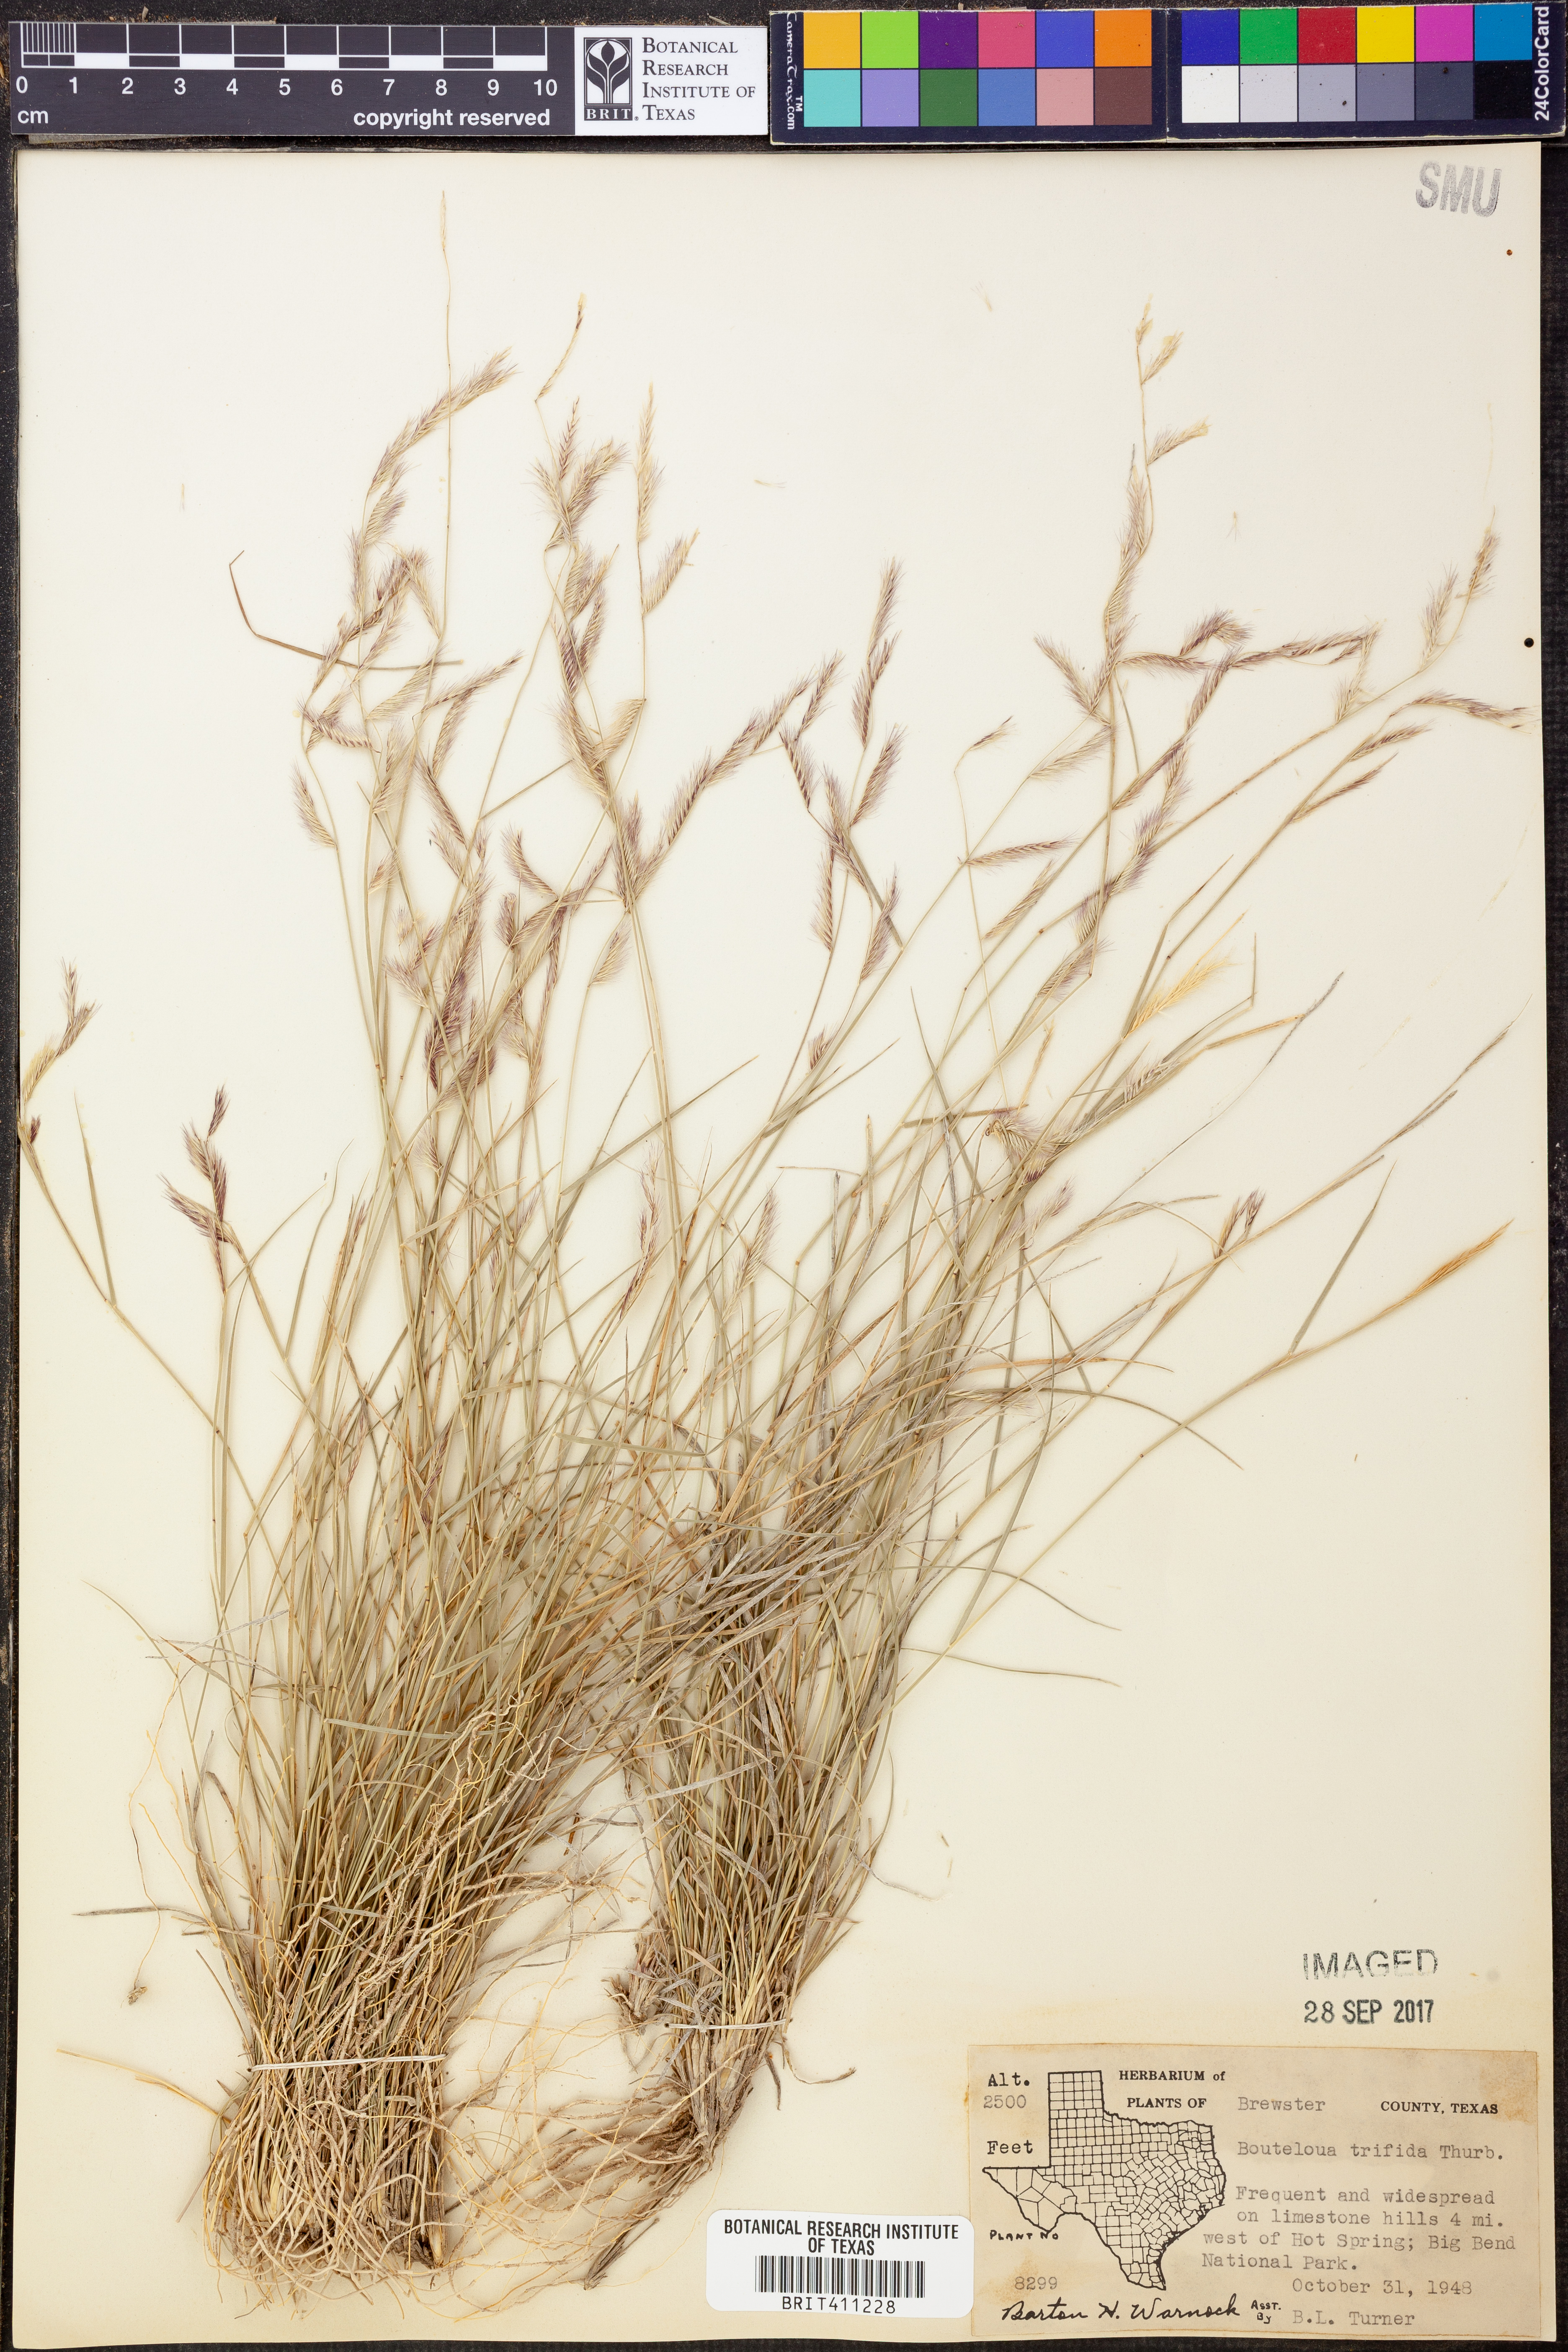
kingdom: Plantae
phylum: Tracheophyta
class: Liliopsida
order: Poales
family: Poaceae
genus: Bouteloua
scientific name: Bouteloua trifida
